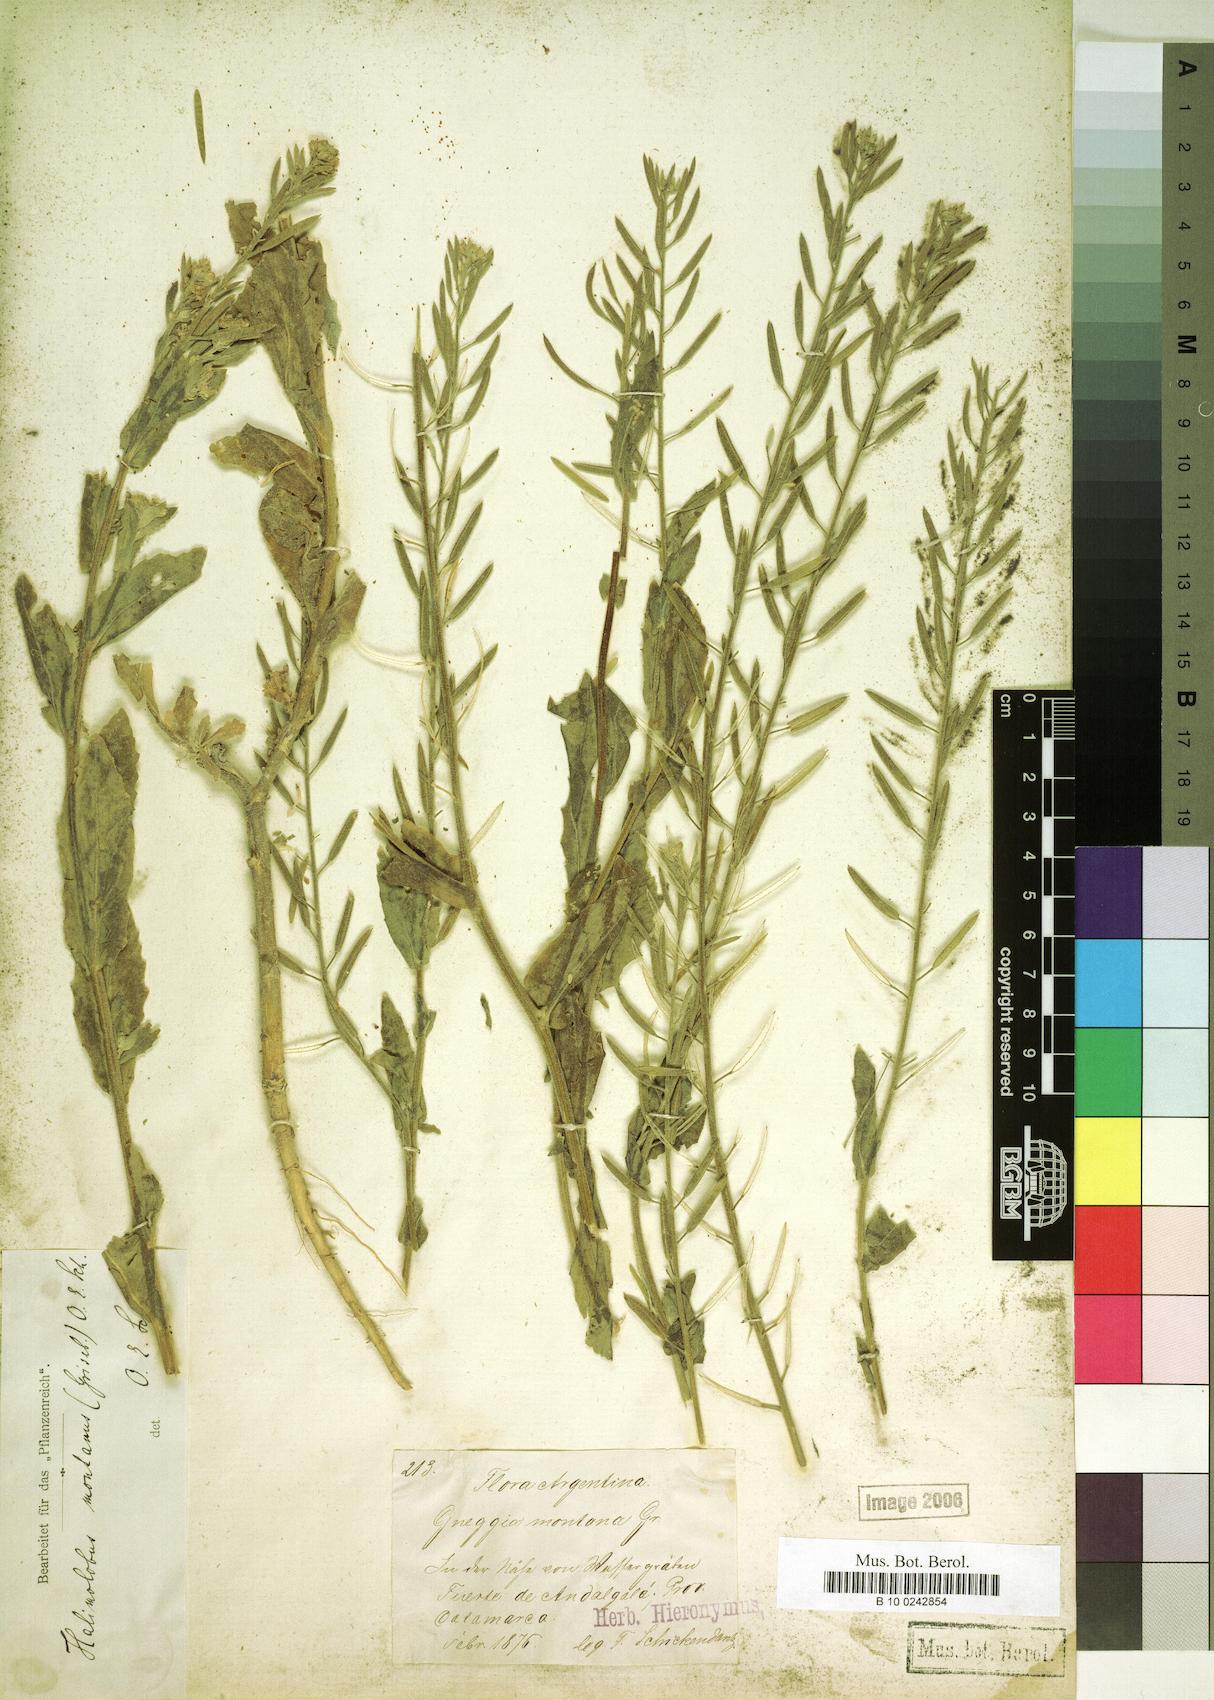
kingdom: Plantae
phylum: Tracheophyta
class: Magnoliopsida
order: Brassicales
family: Brassicaceae
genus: Halimolobus
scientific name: Halimolobus
